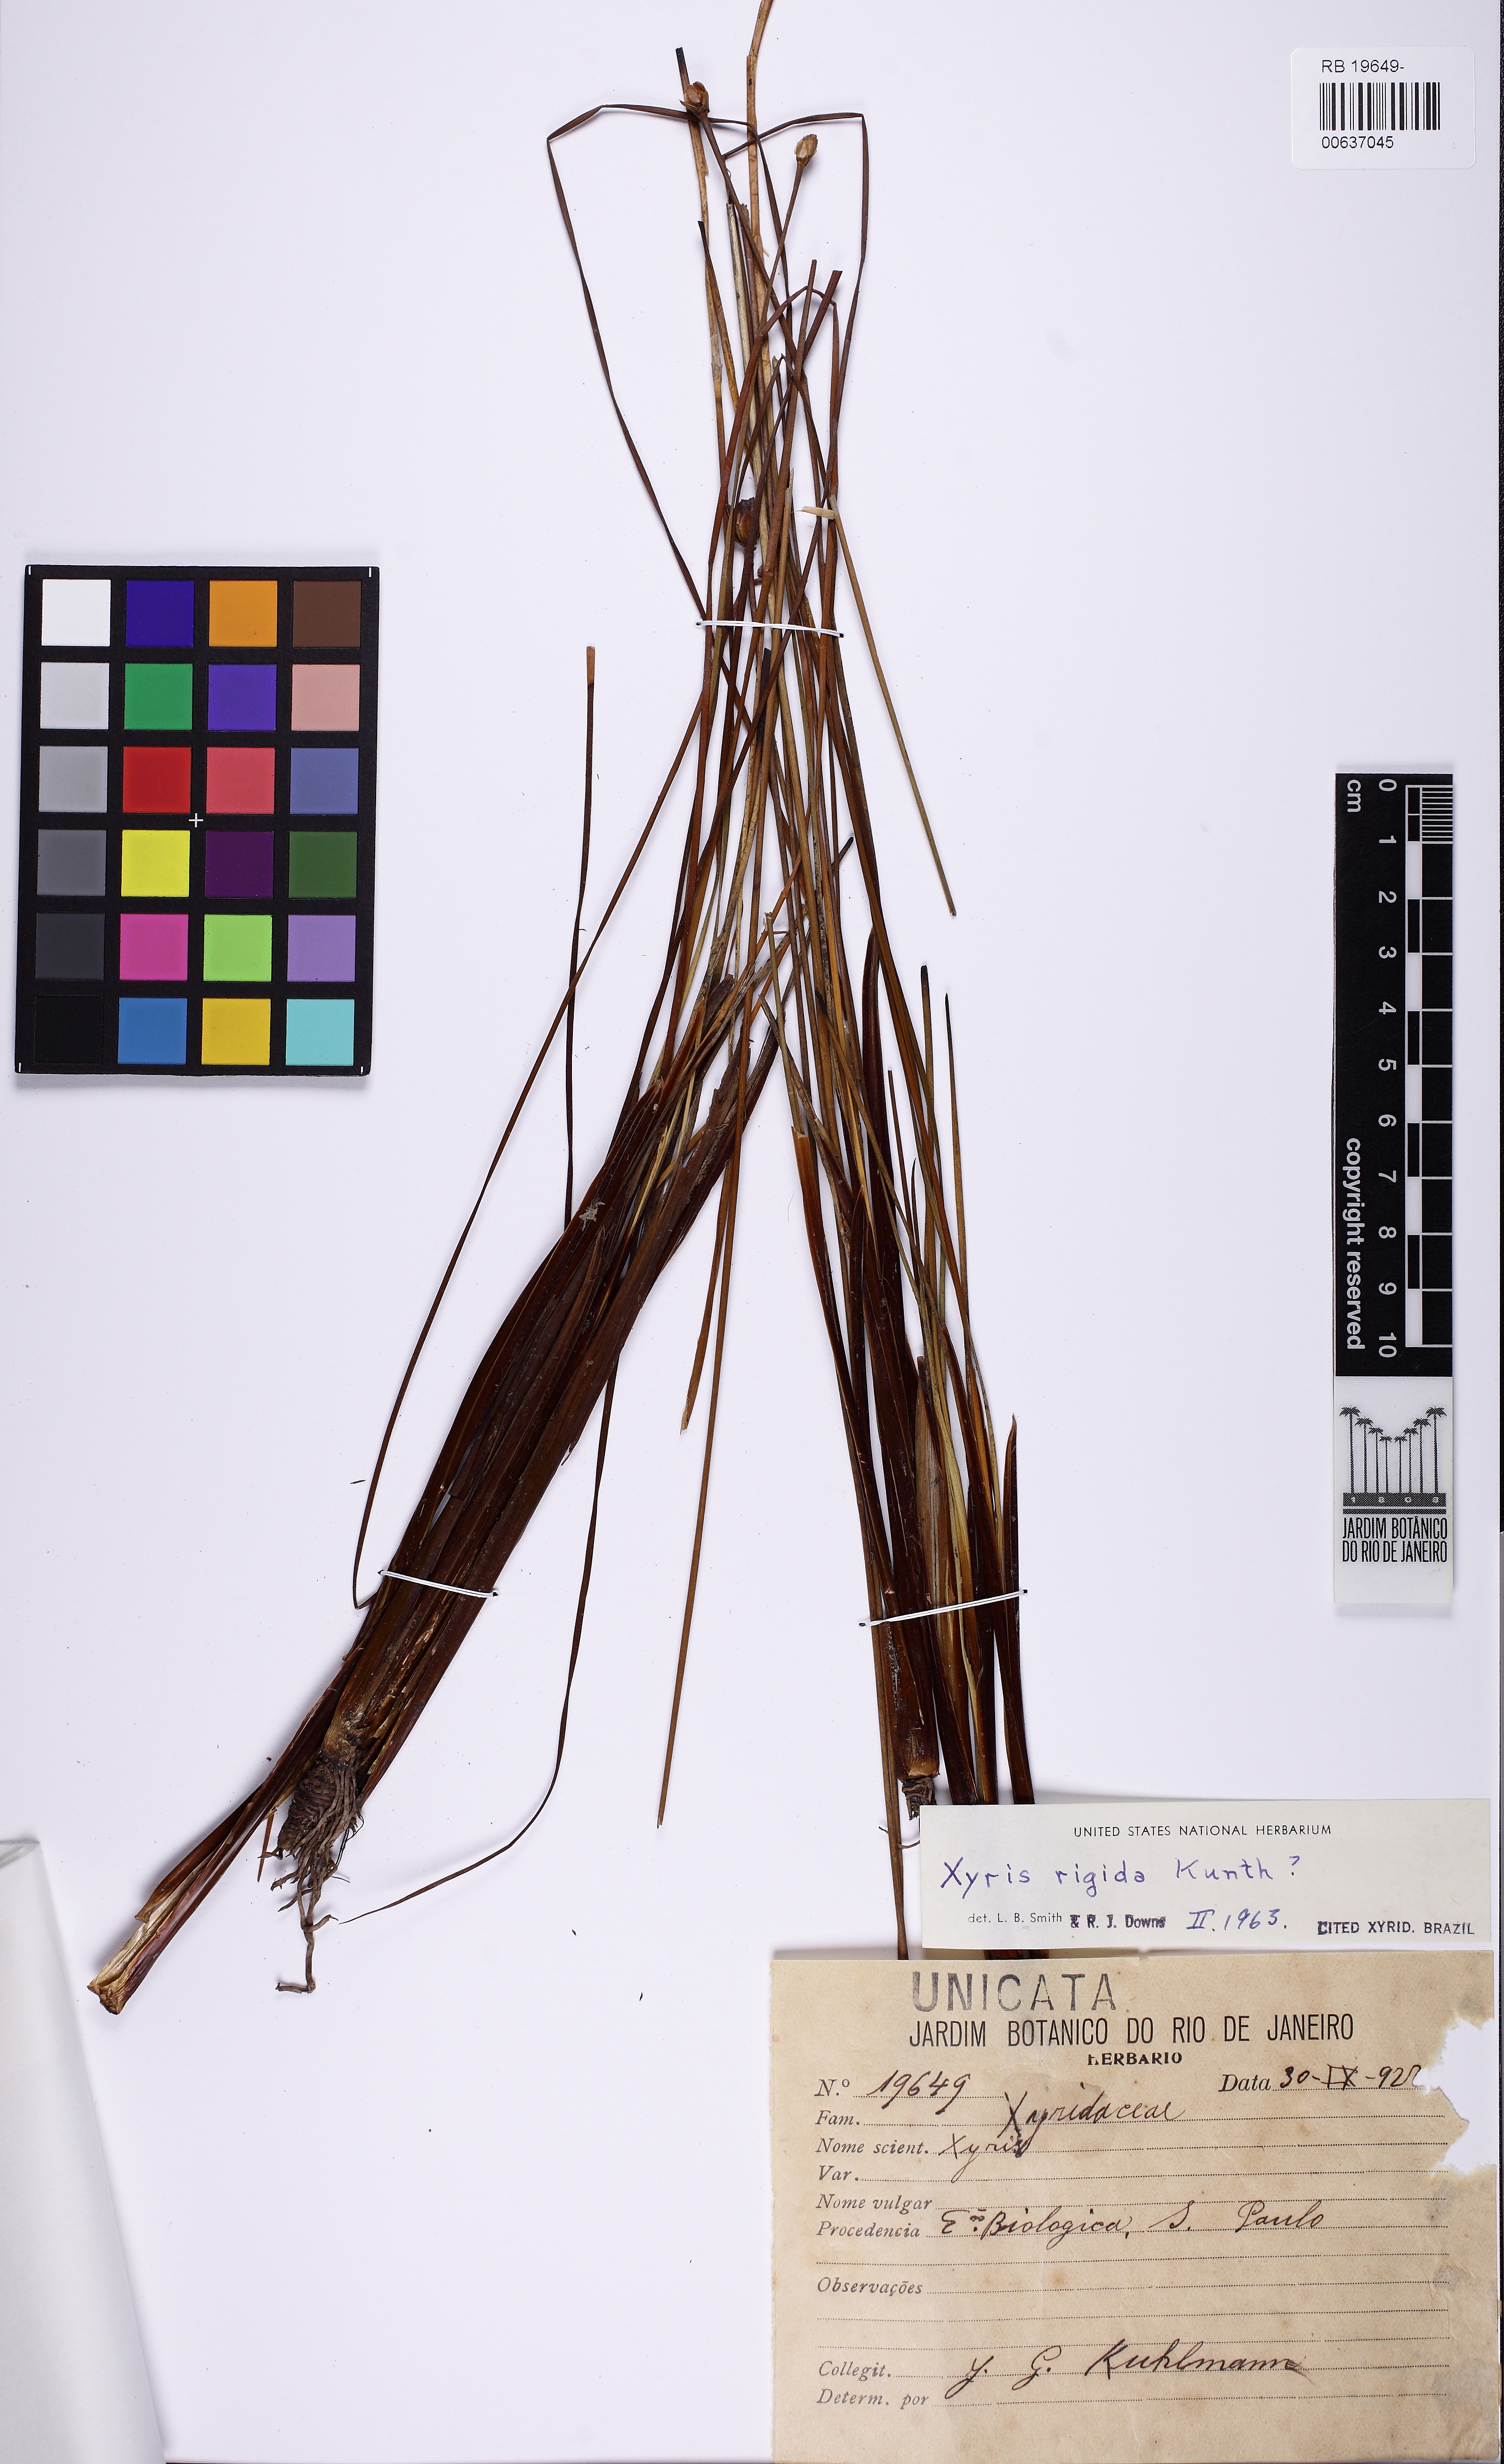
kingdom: Plantae
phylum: Tracheophyta
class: Liliopsida
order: Poales
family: Xyridaceae
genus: Xyris
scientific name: Xyris rigida
